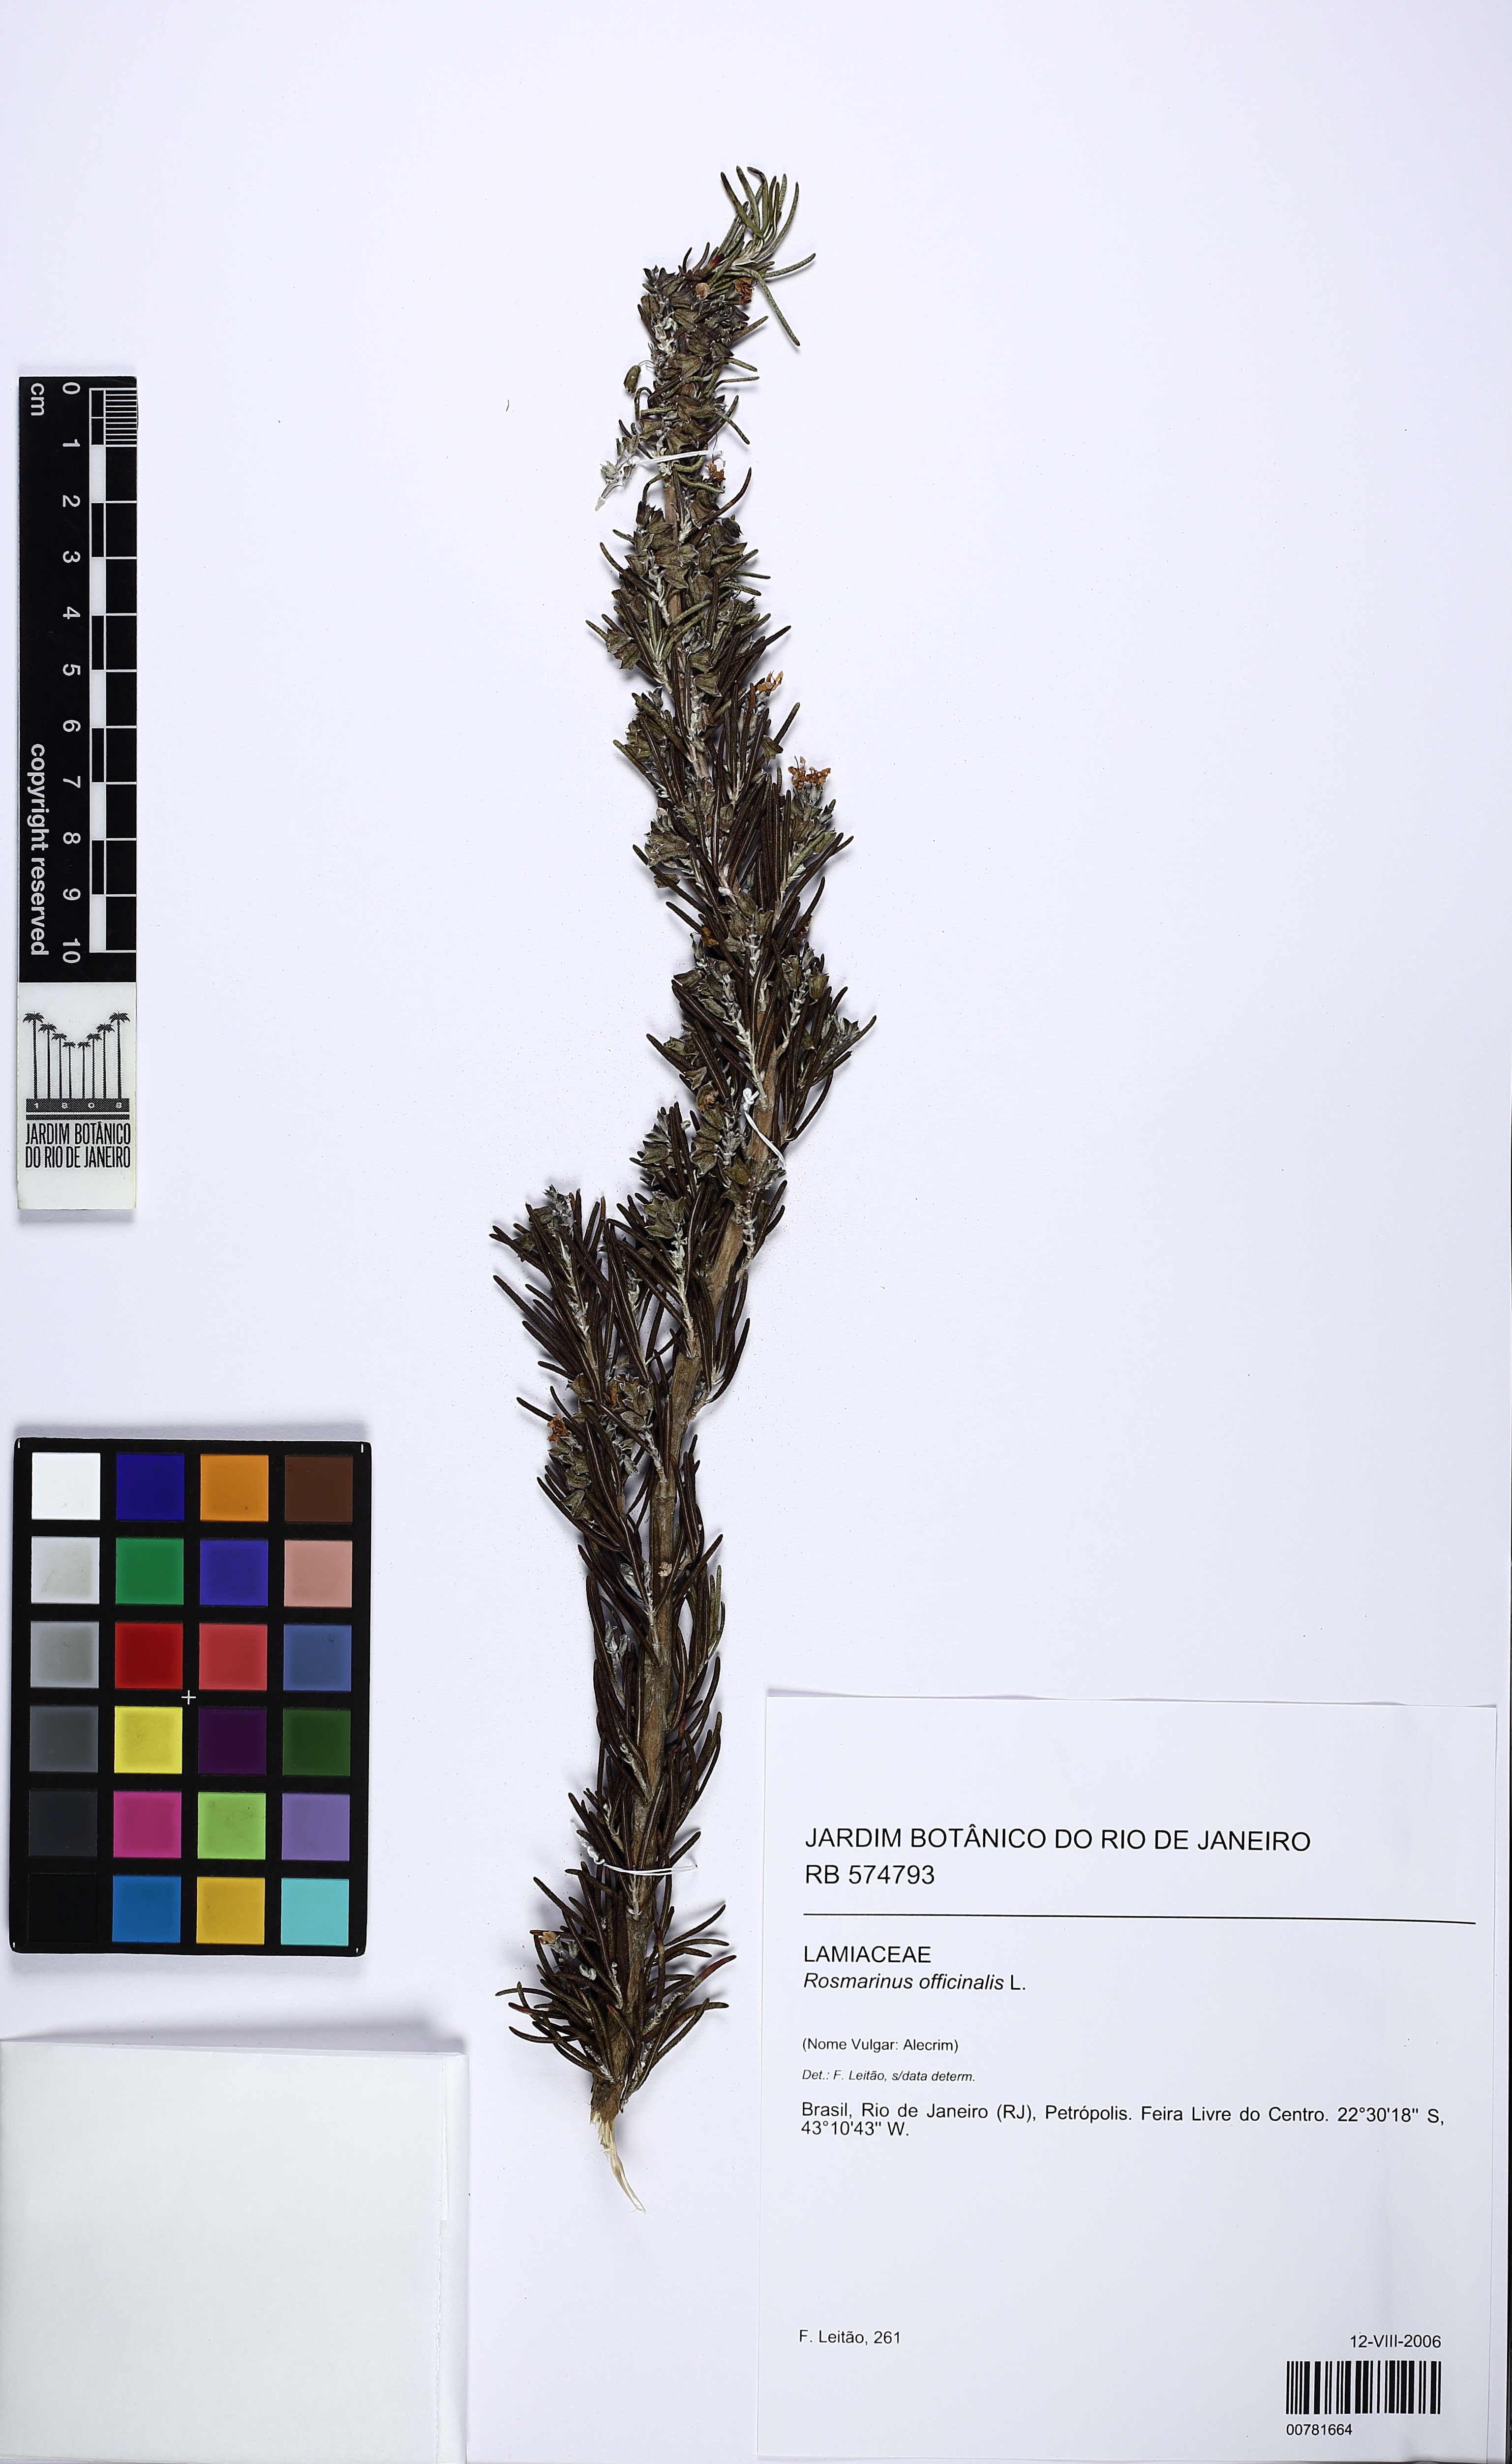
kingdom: Plantae
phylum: Tracheophyta
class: Magnoliopsida
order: Lamiales
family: Lamiaceae
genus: Salvia
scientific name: Salvia rosmarinus
